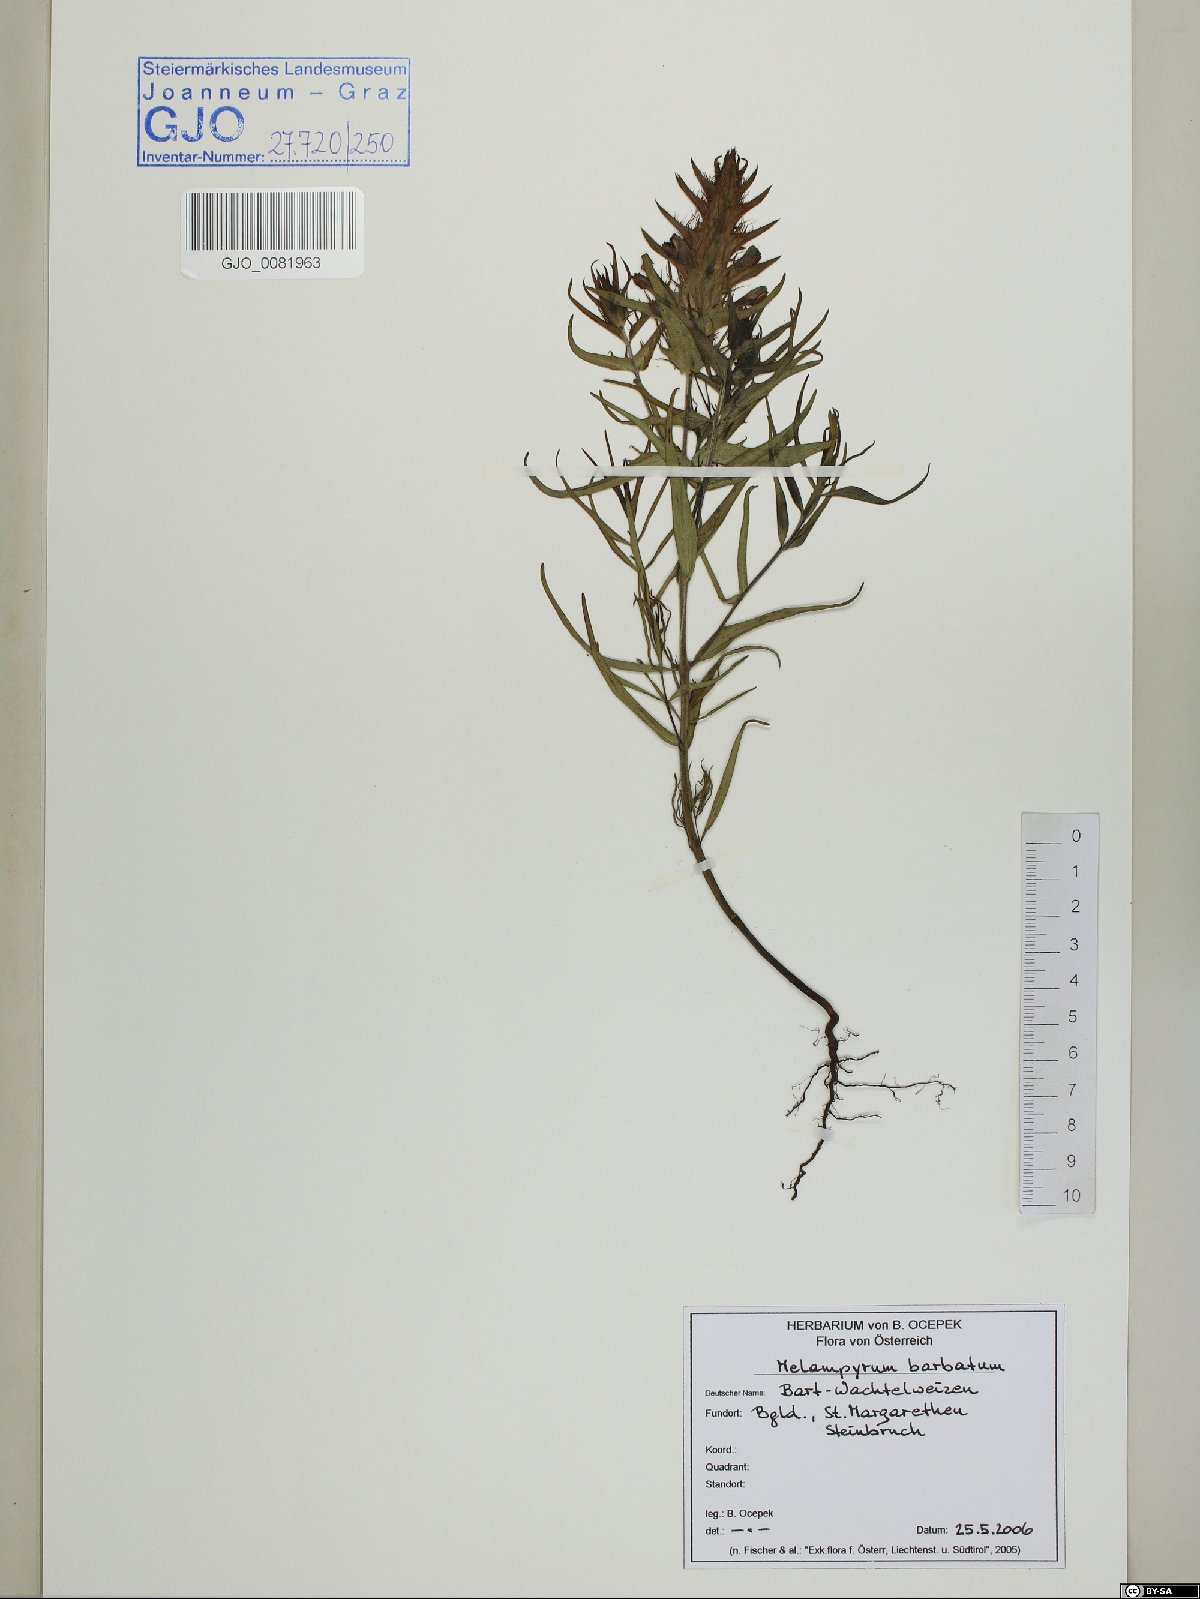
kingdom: Plantae
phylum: Tracheophyta
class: Magnoliopsida
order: Lamiales
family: Orobanchaceae
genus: Melampyrum
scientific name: Melampyrum barbatum
